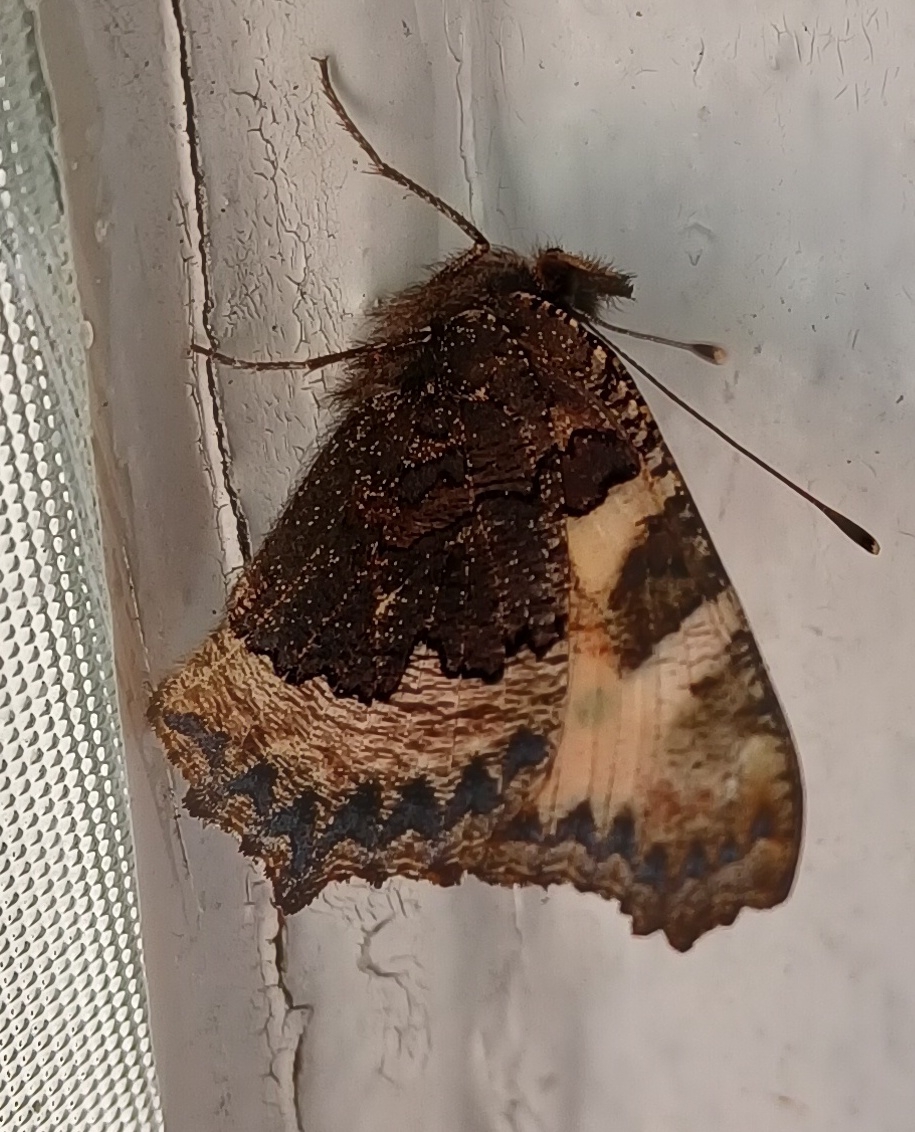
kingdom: Animalia
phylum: Arthropoda
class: Insecta
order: Lepidoptera
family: Nymphalidae
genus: Aglais
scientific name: Aglais urticae
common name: Nældens takvinge
